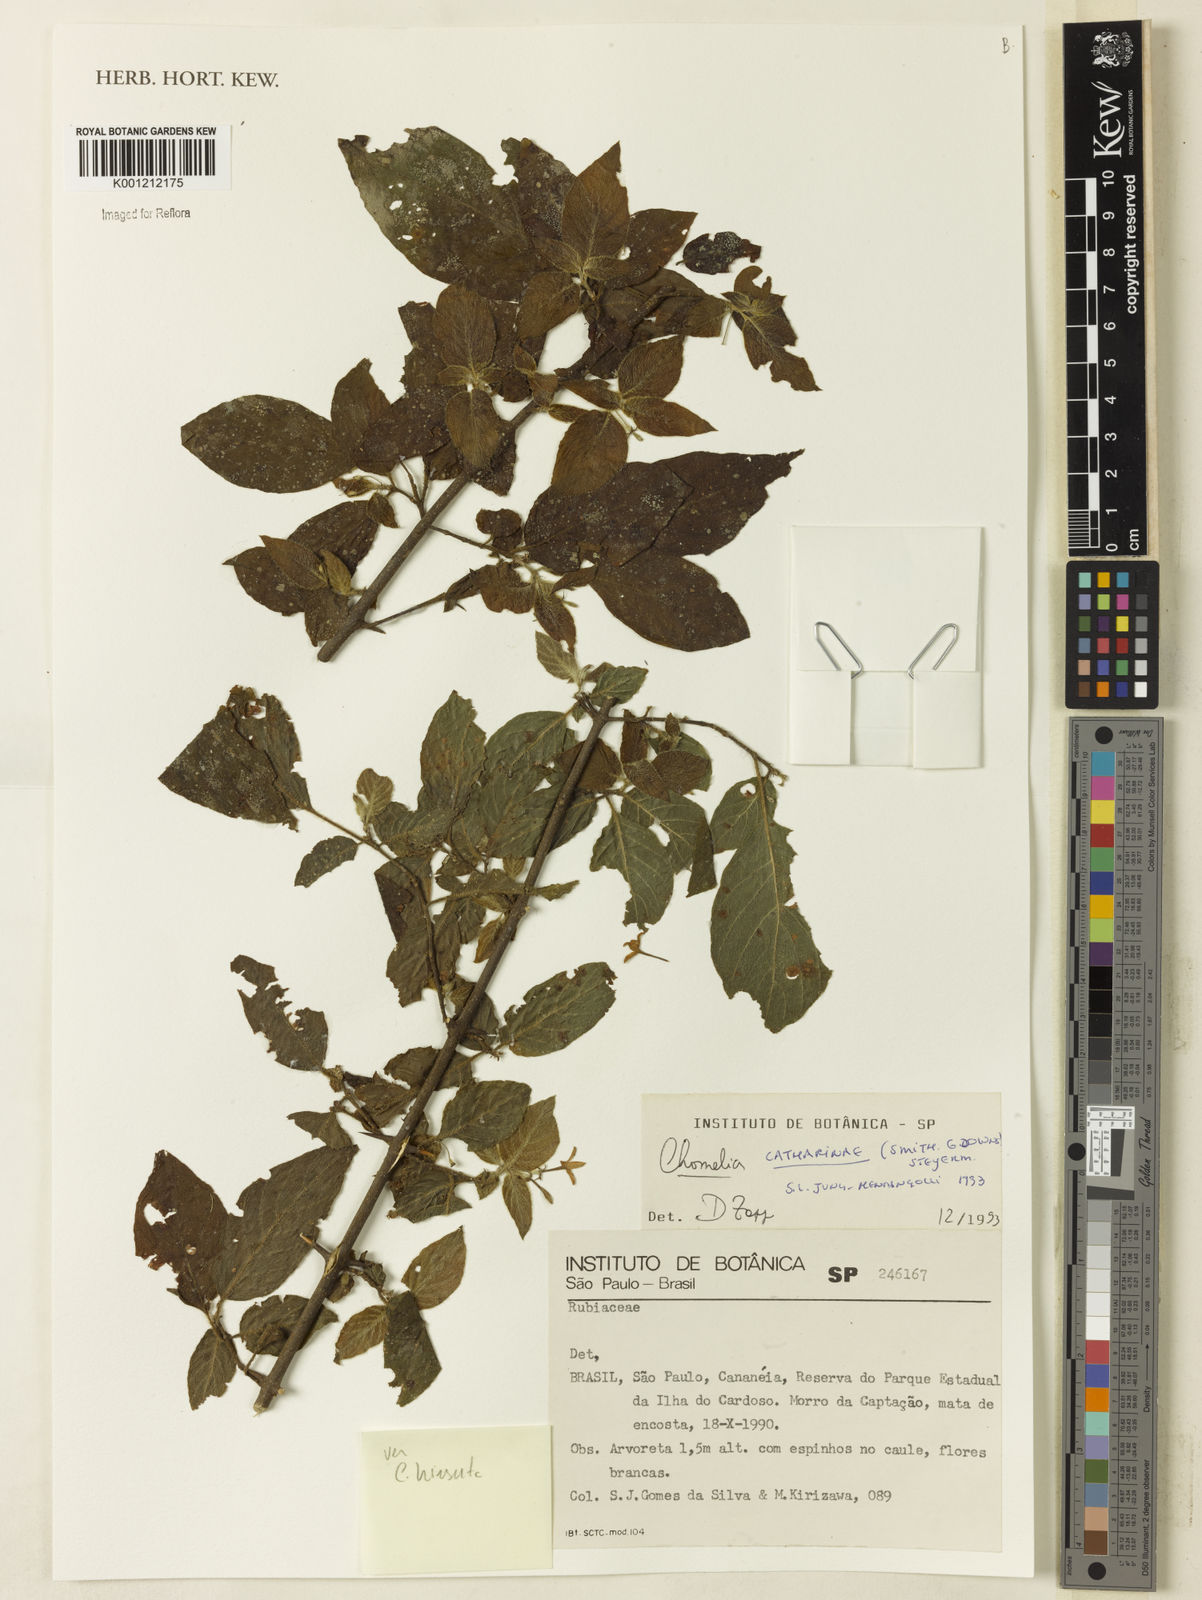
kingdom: Plantae
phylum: Tracheophyta
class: Magnoliopsida
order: Gentianales
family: Rubiaceae
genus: Chomelia
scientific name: Chomelia parvifolia
